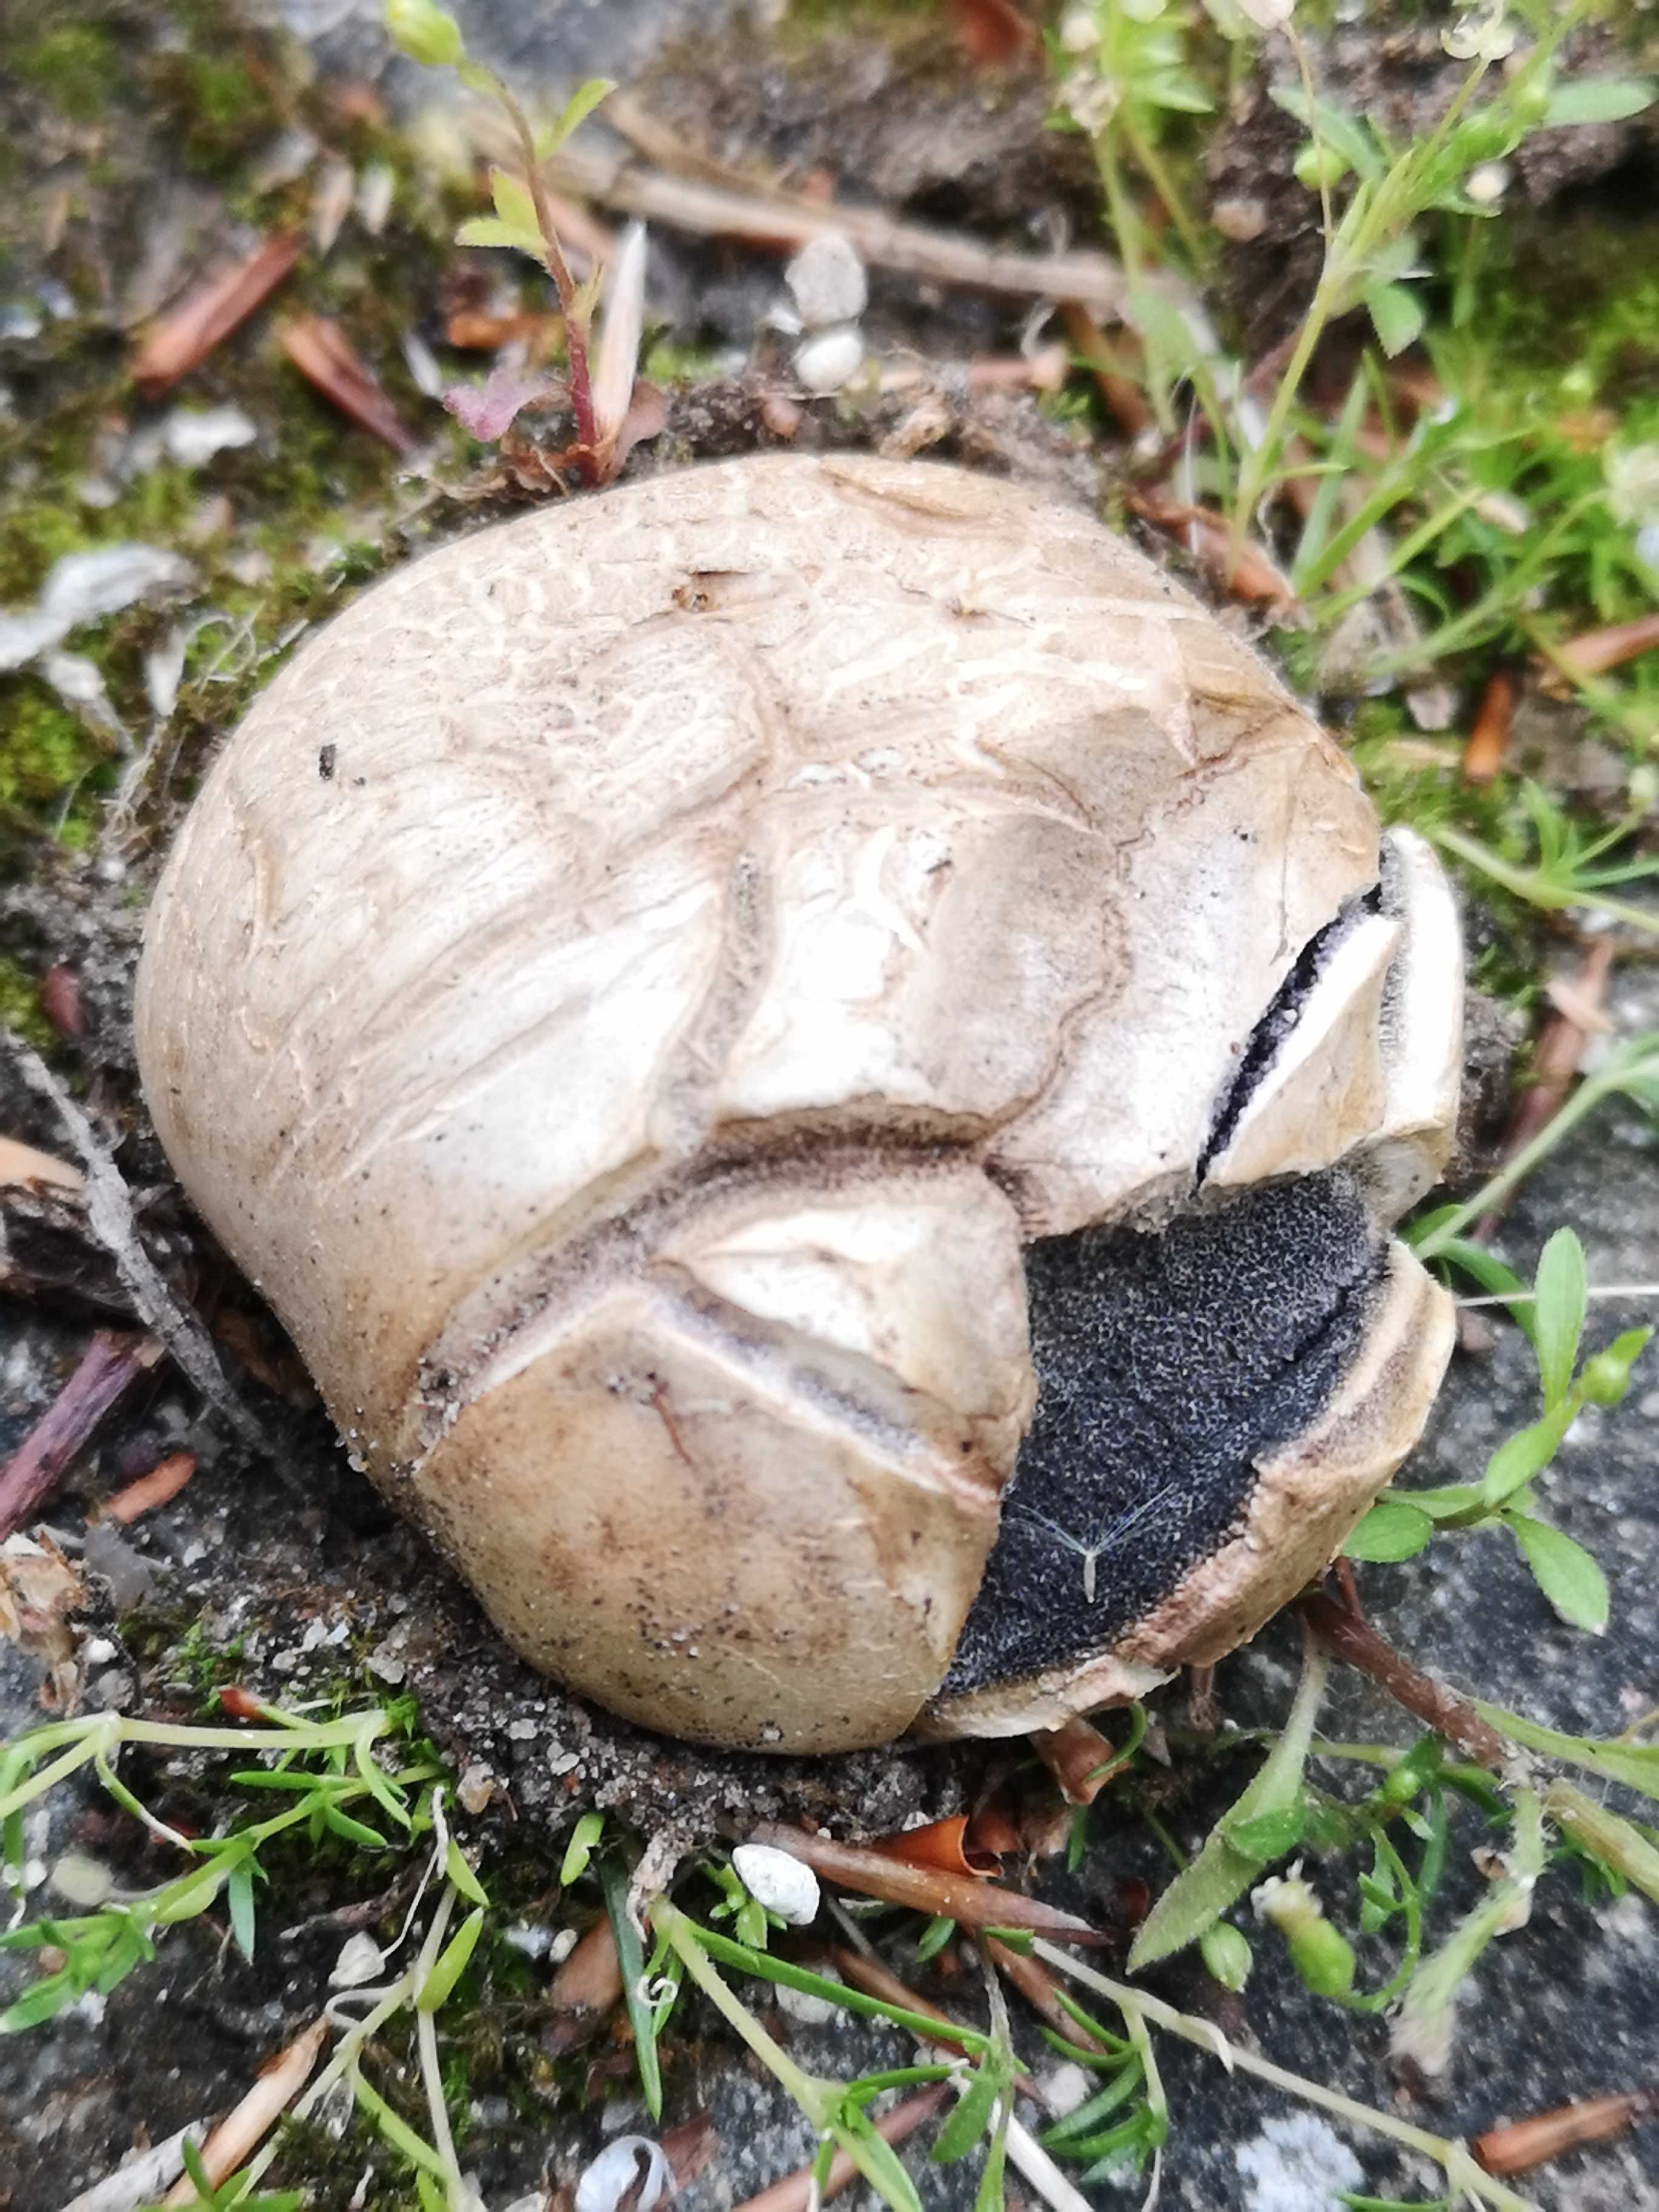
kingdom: Fungi
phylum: Basidiomycota
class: Agaricomycetes
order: Boletales
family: Sclerodermataceae
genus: Scleroderma
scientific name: Scleroderma bovista
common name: bovist-bruskbold
